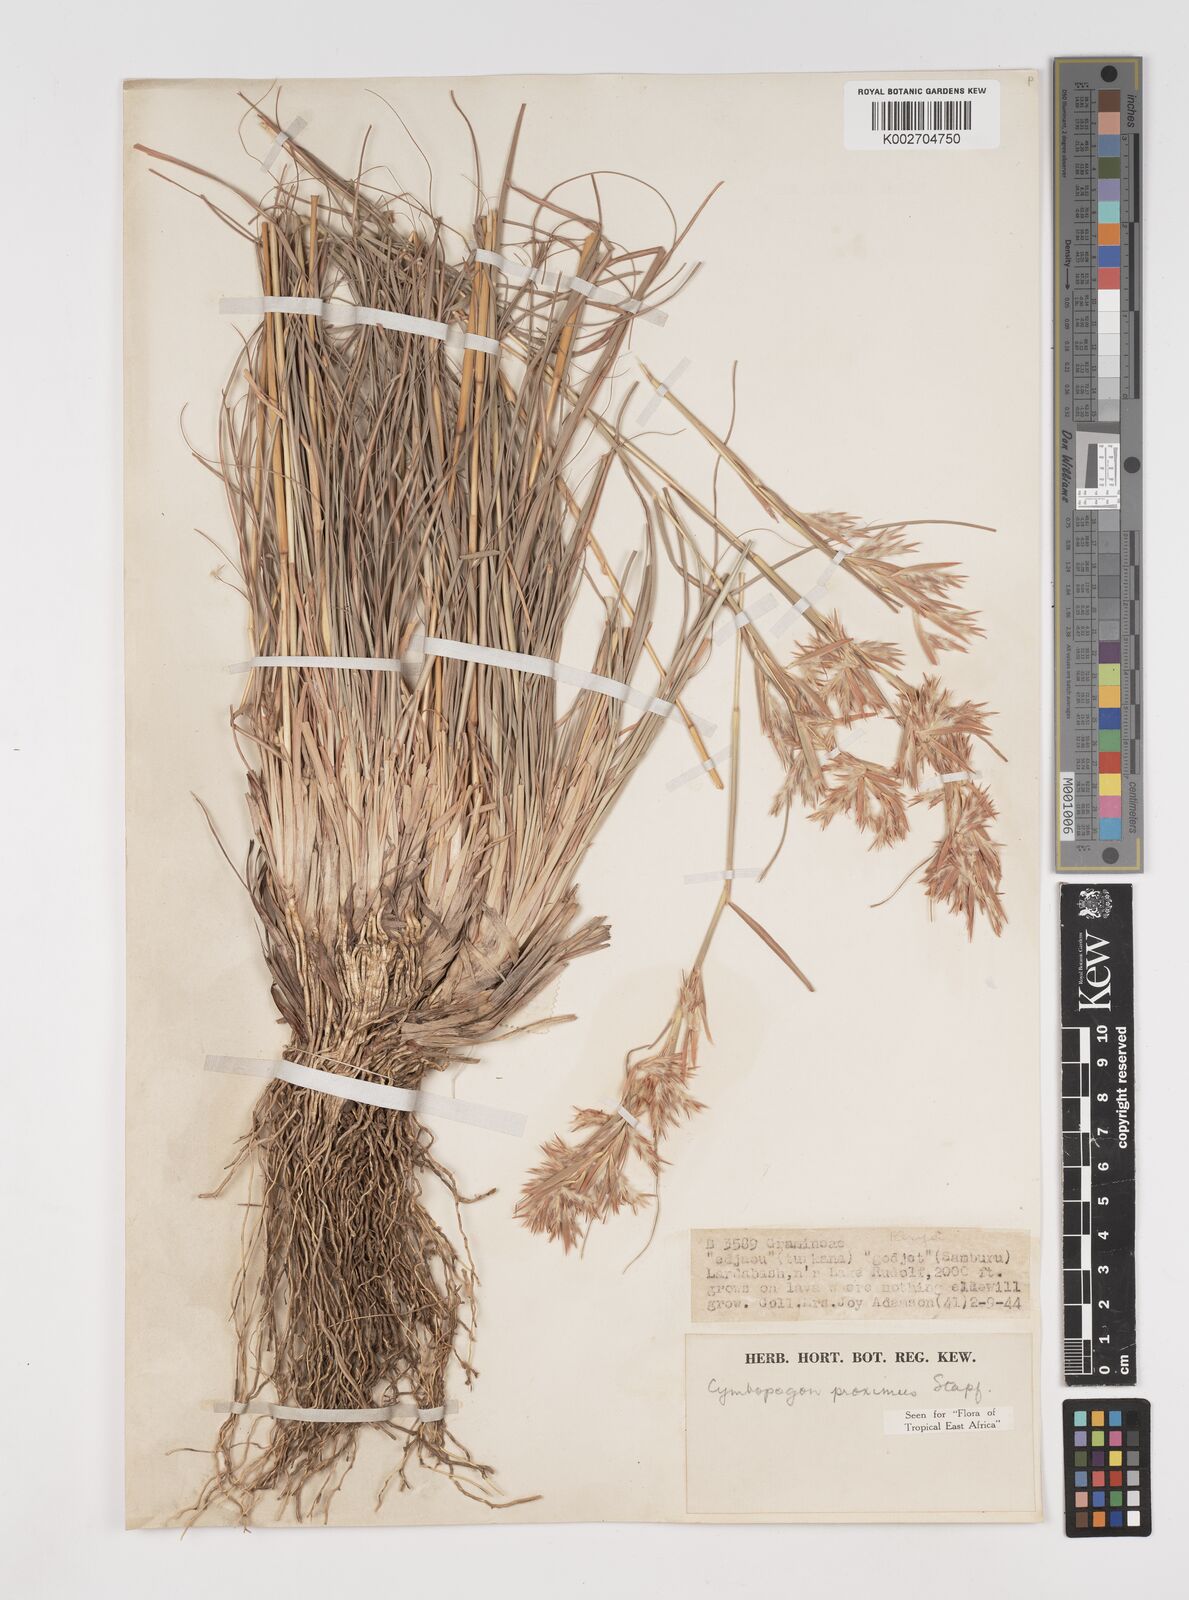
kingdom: Plantae
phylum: Tracheophyta
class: Liliopsida
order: Poales
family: Poaceae
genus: Cymbopogon
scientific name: Cymbopogon schoenanthus
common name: Geranium grass
